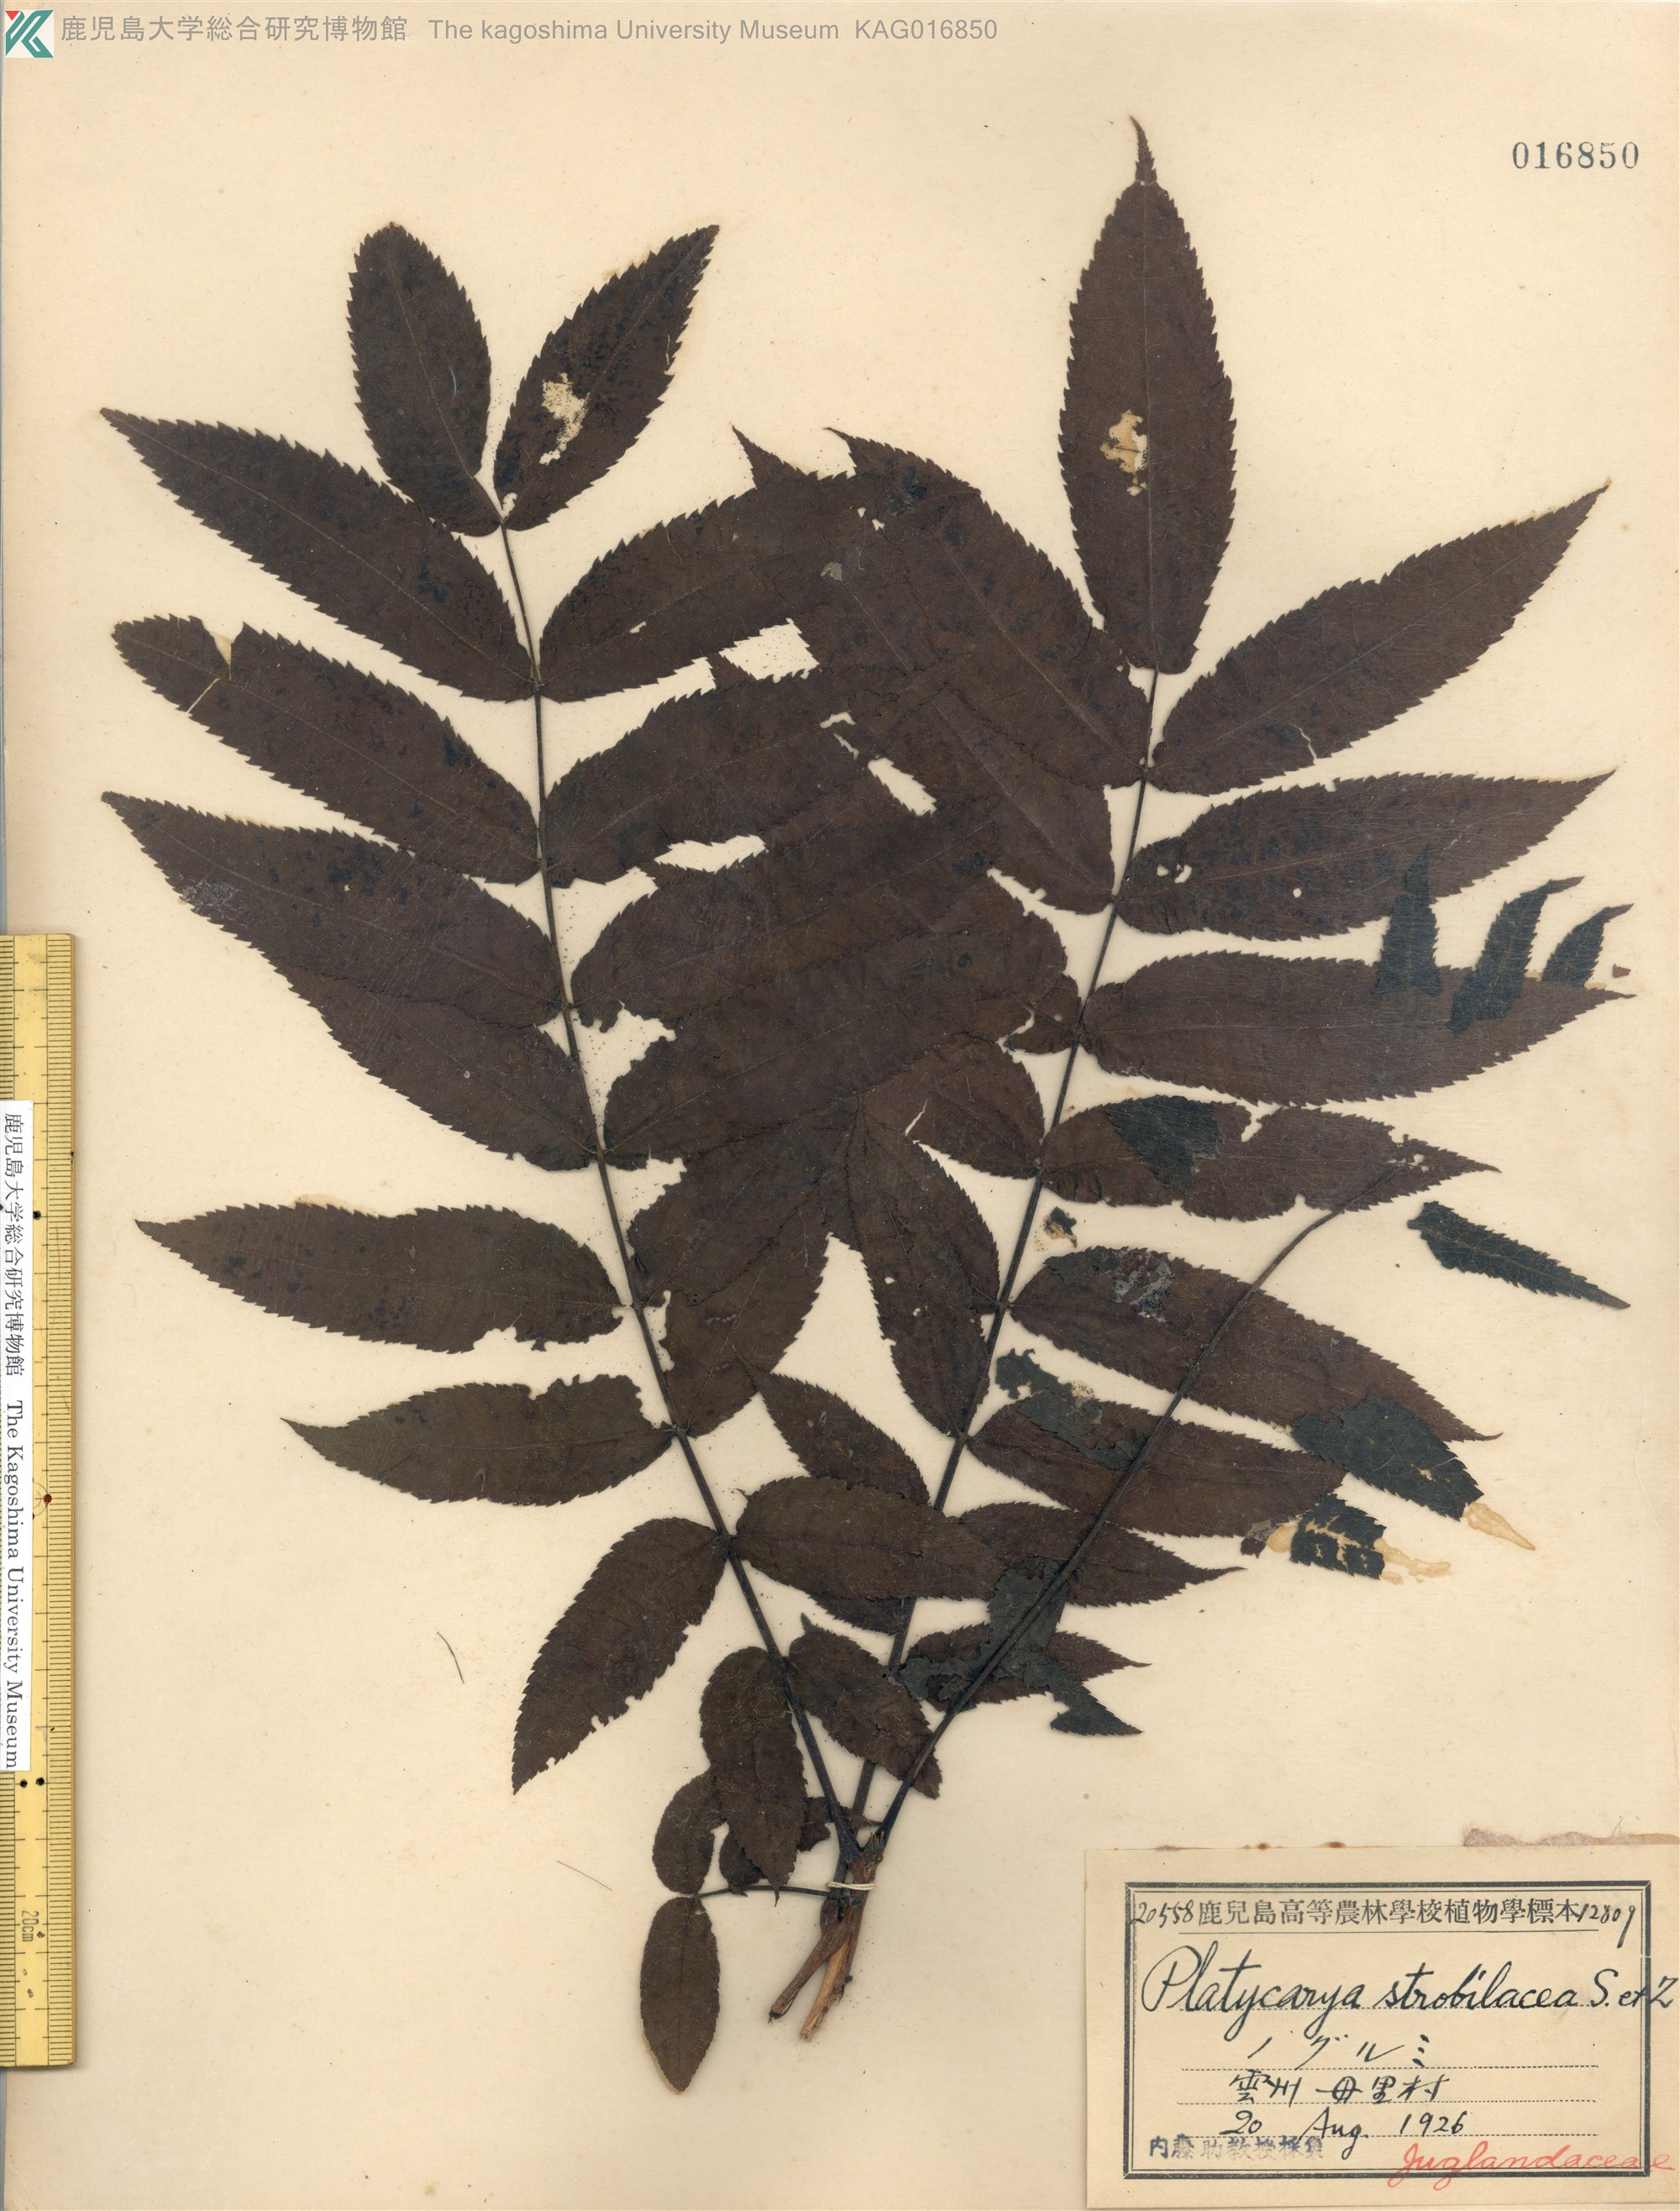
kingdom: Plantae
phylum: Tracheophyta
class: Magnoliopsida
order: Fagales
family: Juglandaceae
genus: Platycarya
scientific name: Platycarya strobilacea
